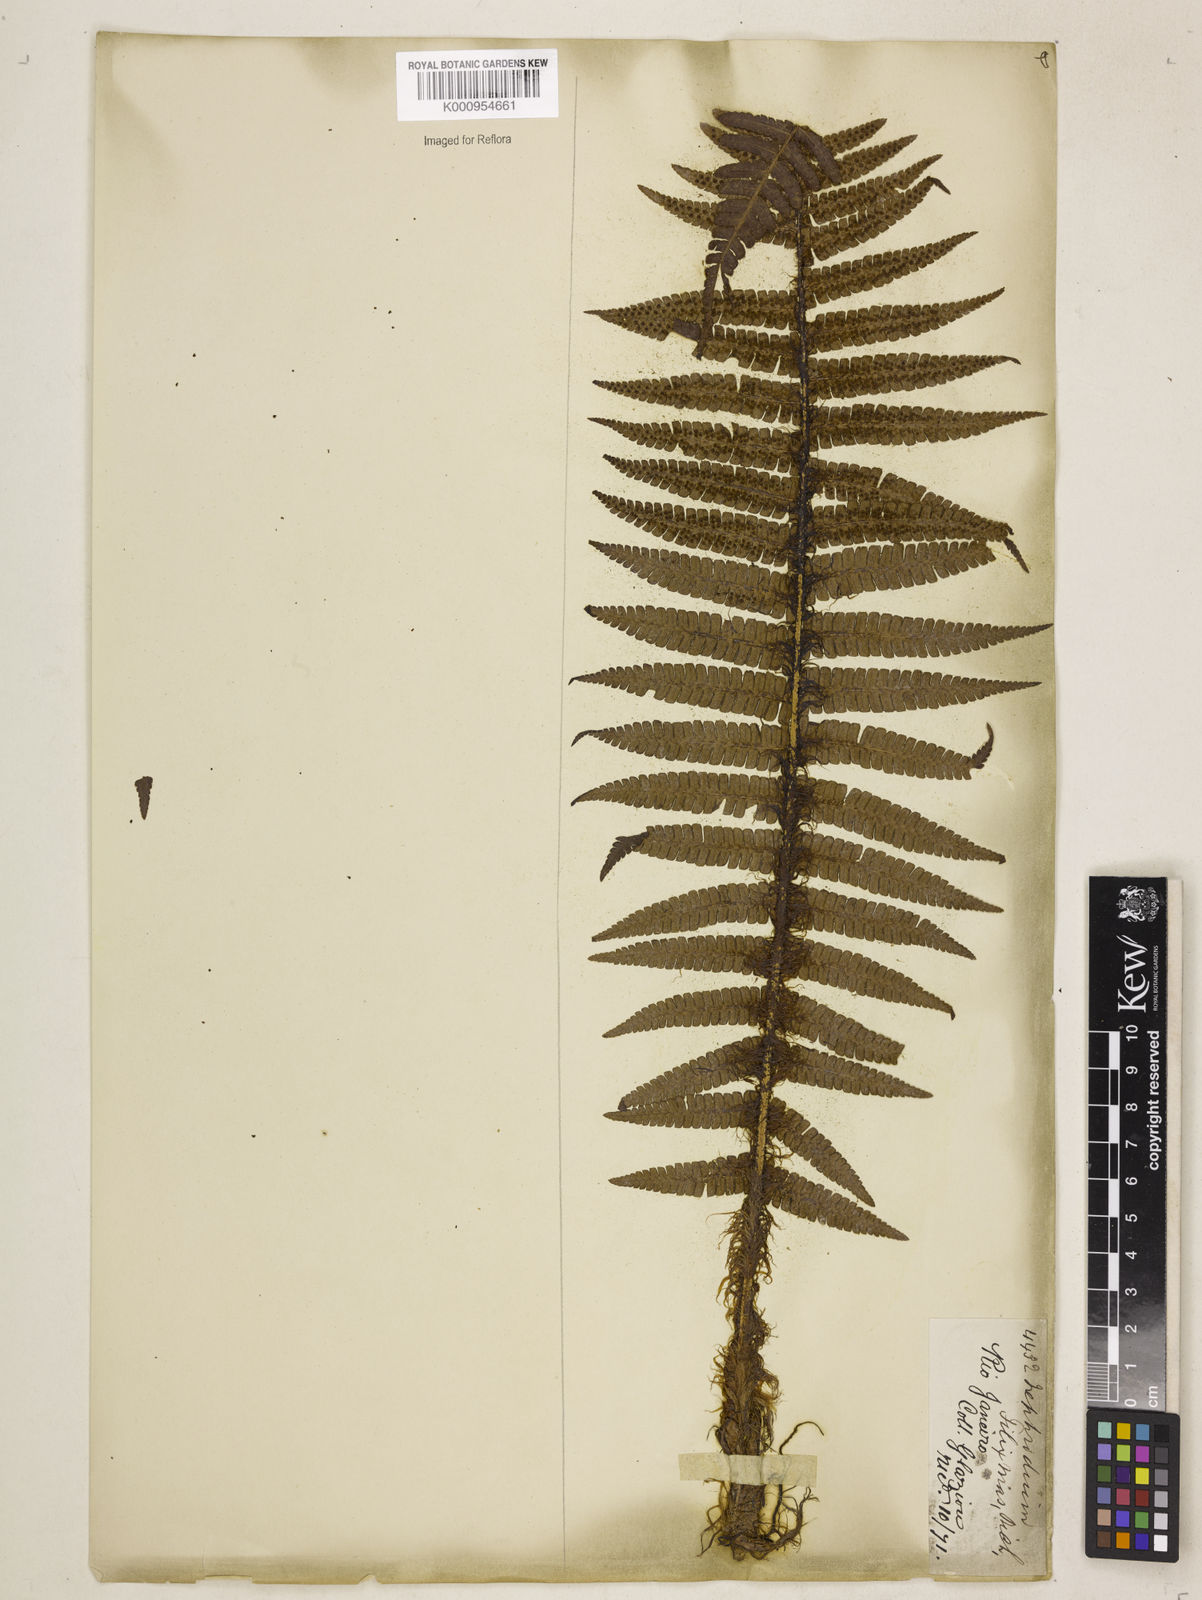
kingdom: Plantae
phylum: Tracheophyta
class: Polypodiopsida
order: Polypodiales
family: Dryopteridaceae
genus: Dryopteris
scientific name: Dryopteris
